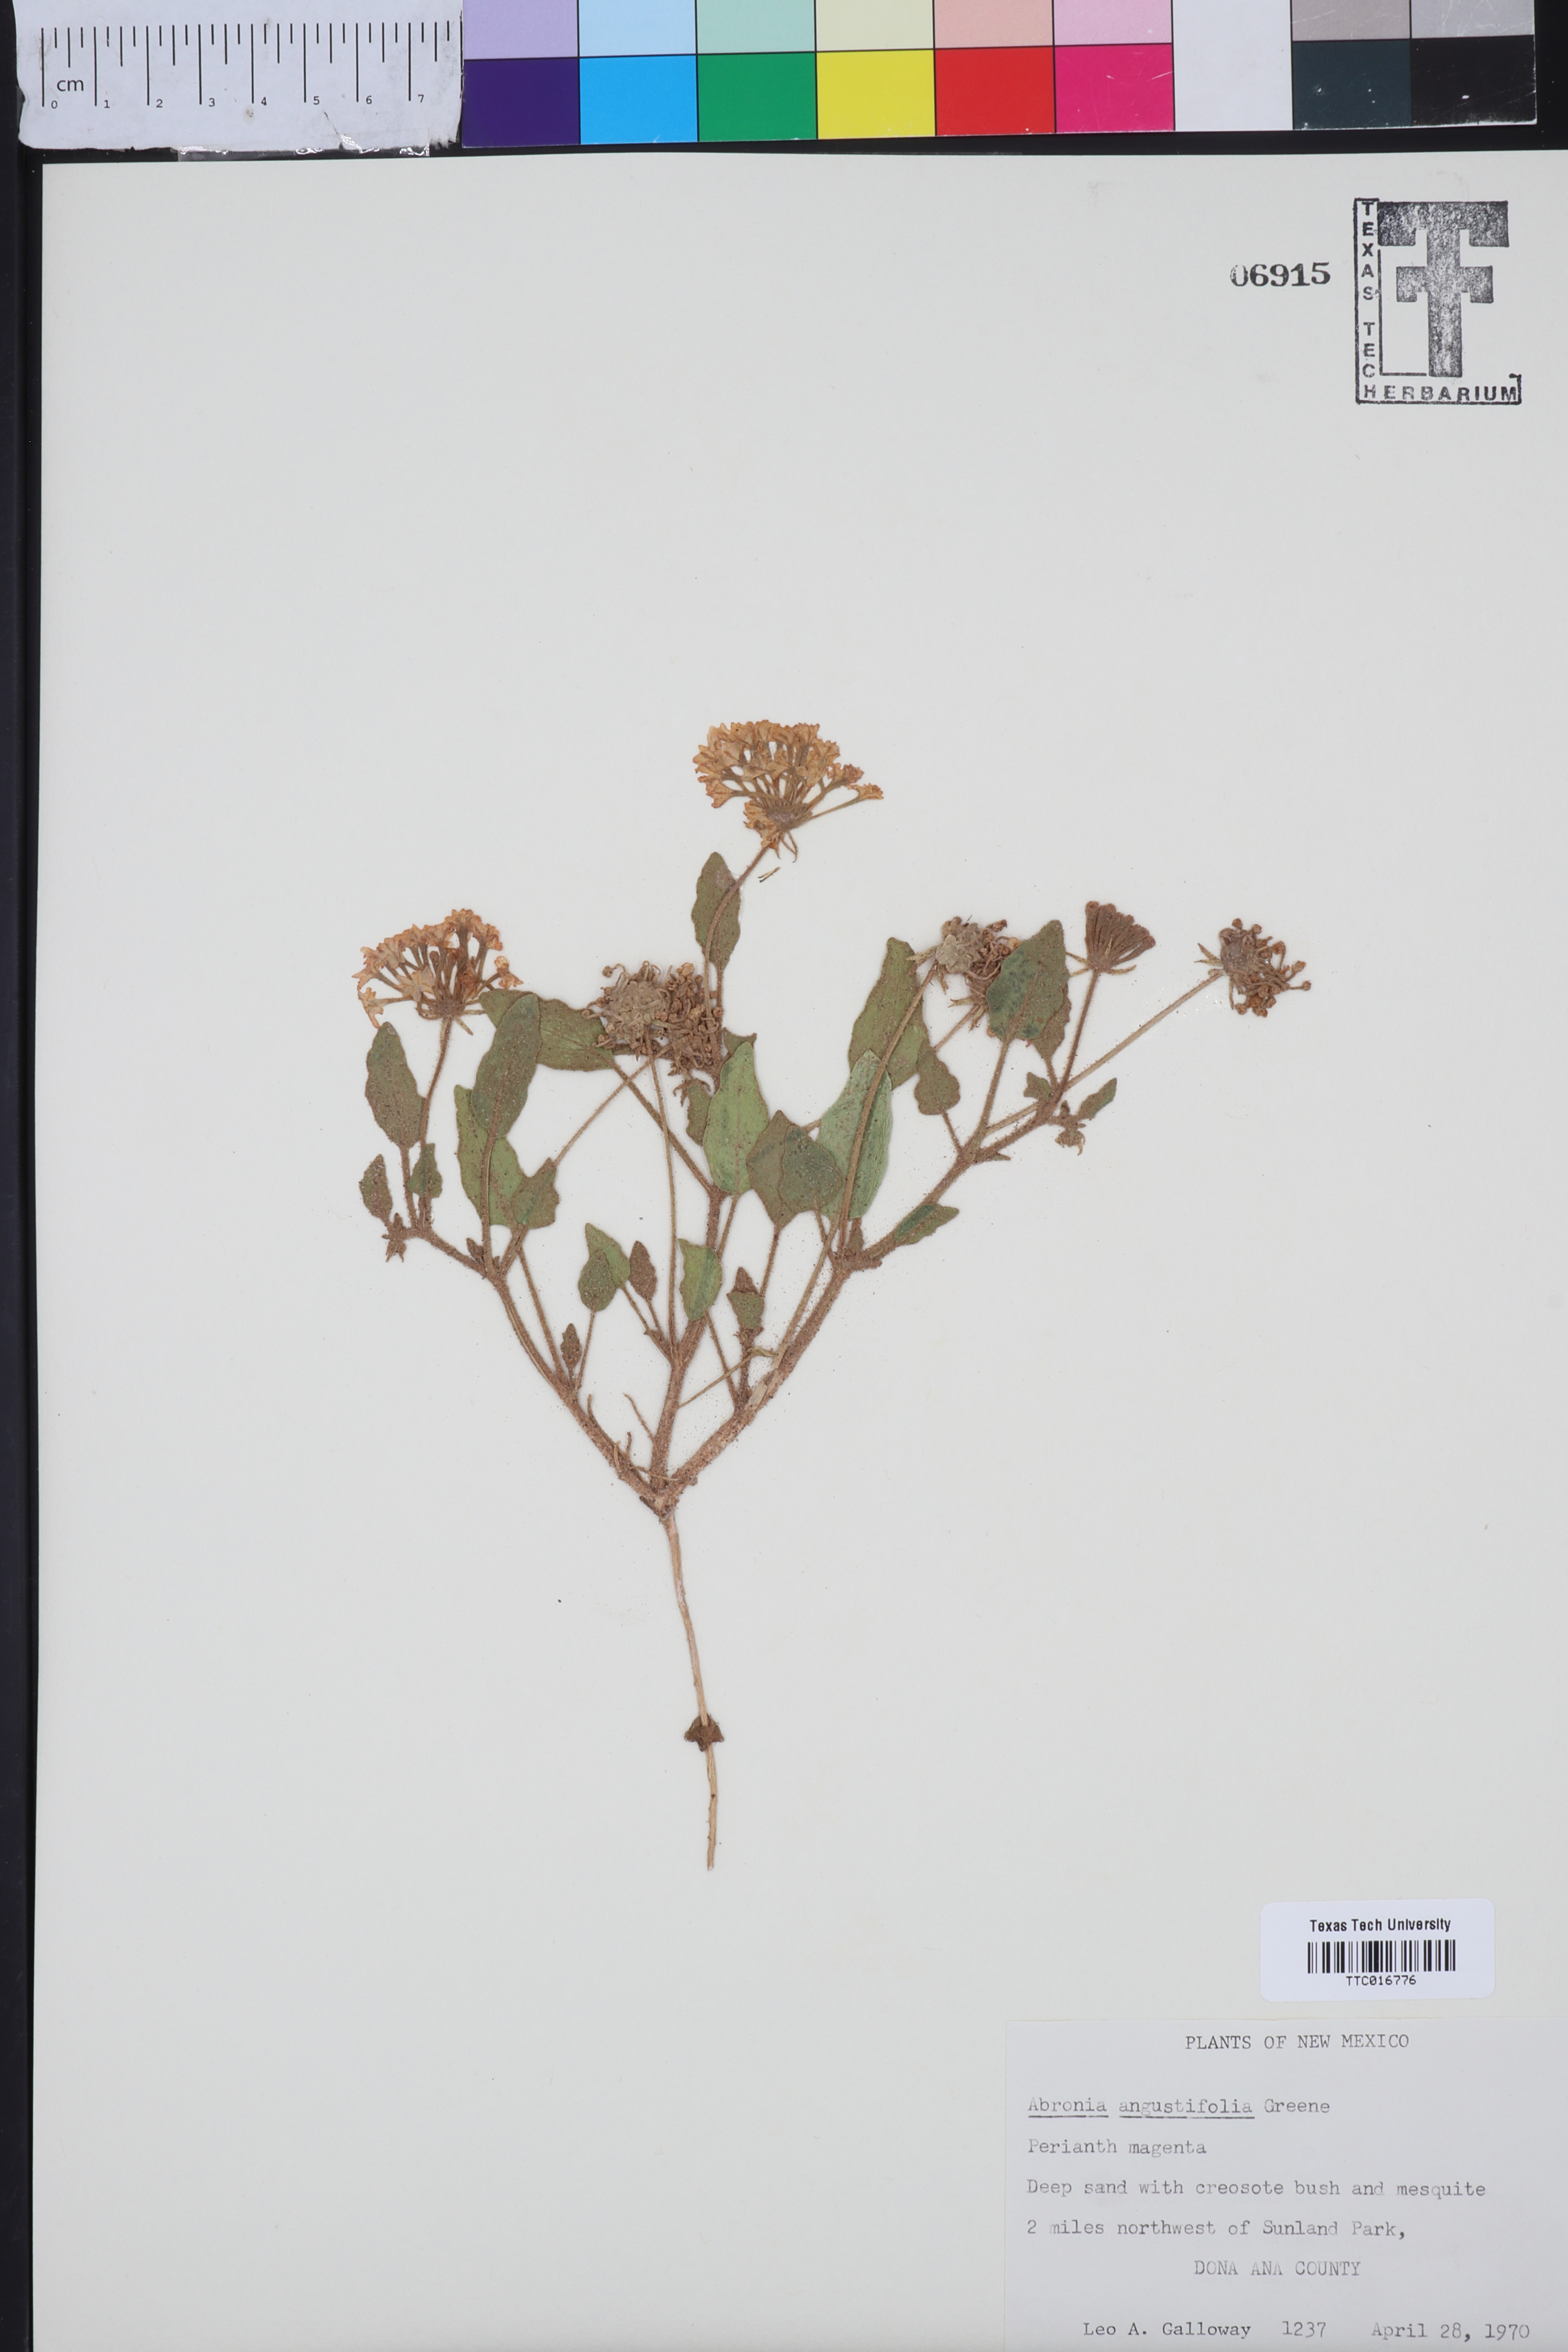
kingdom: Plantae
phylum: Tracheophyta
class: Magnoliopsida
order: Caryophyllales
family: Nyctaginaceae
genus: Abronia
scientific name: Abronia angustifolia
